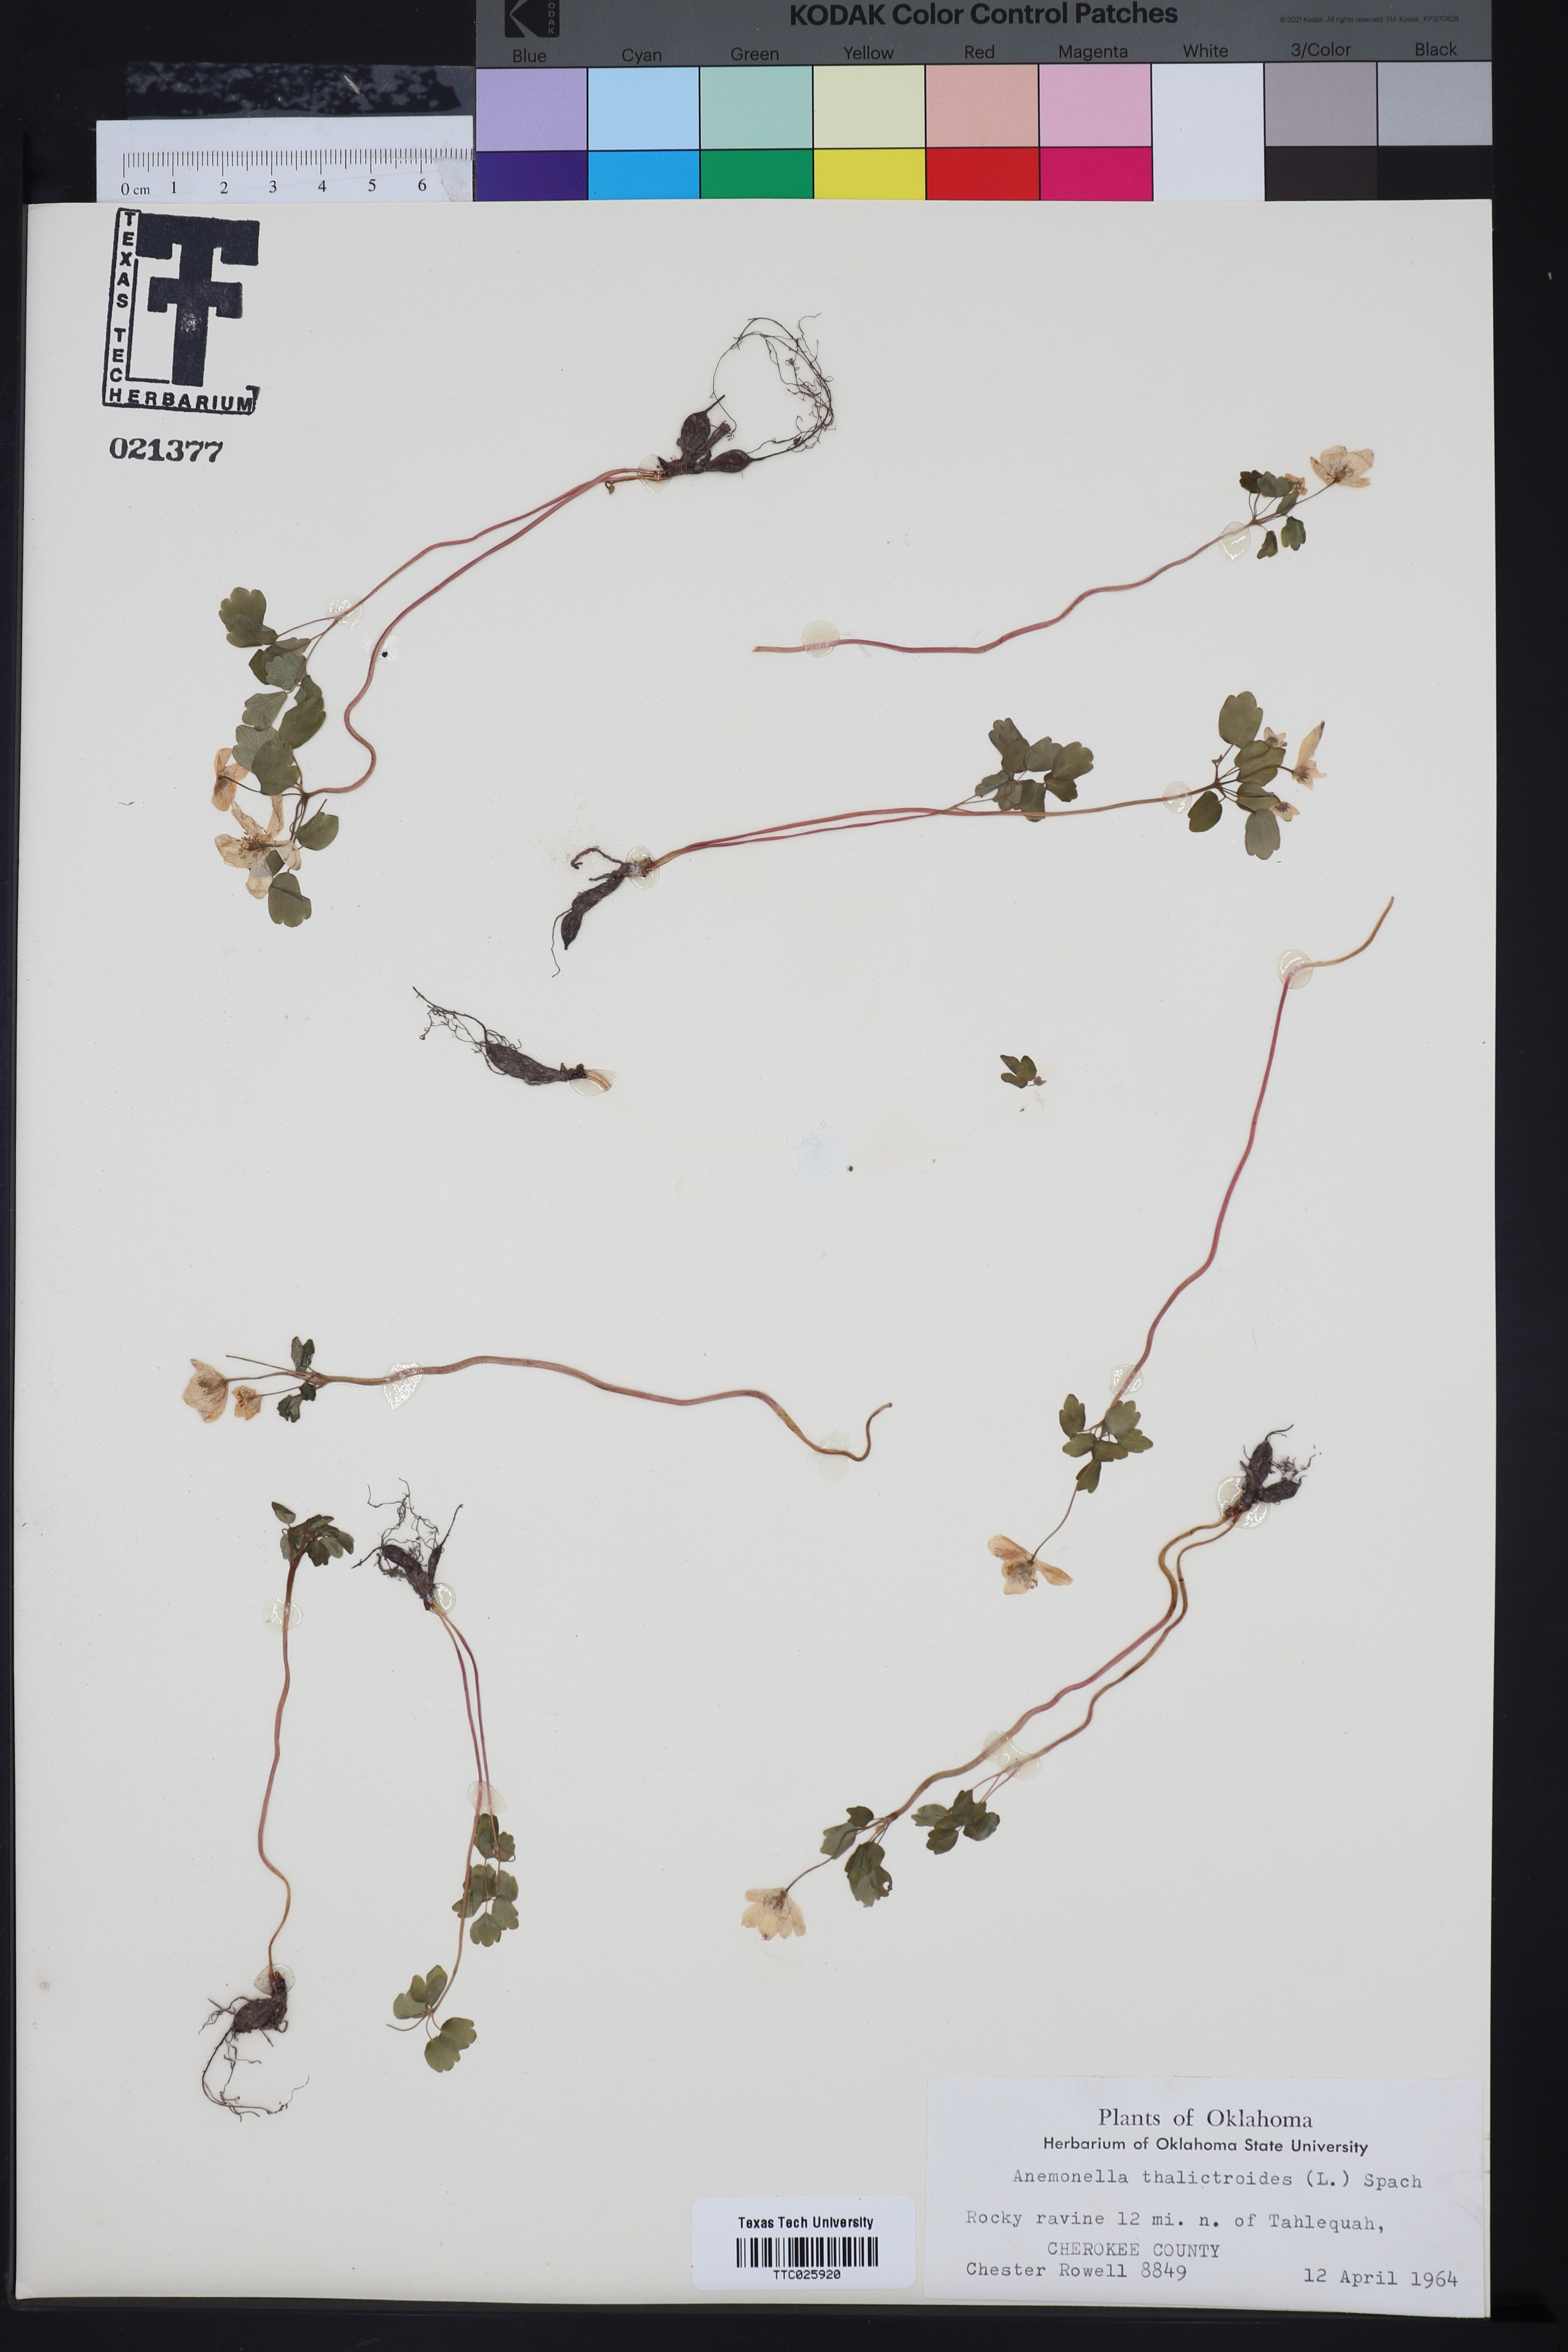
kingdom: Plantae
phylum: Tracheophyta
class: Magnoliopsida
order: Ranunculales
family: Ranunculaceae
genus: Thalictrum
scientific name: Thalictrum thalictroides
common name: Rue-anemone
